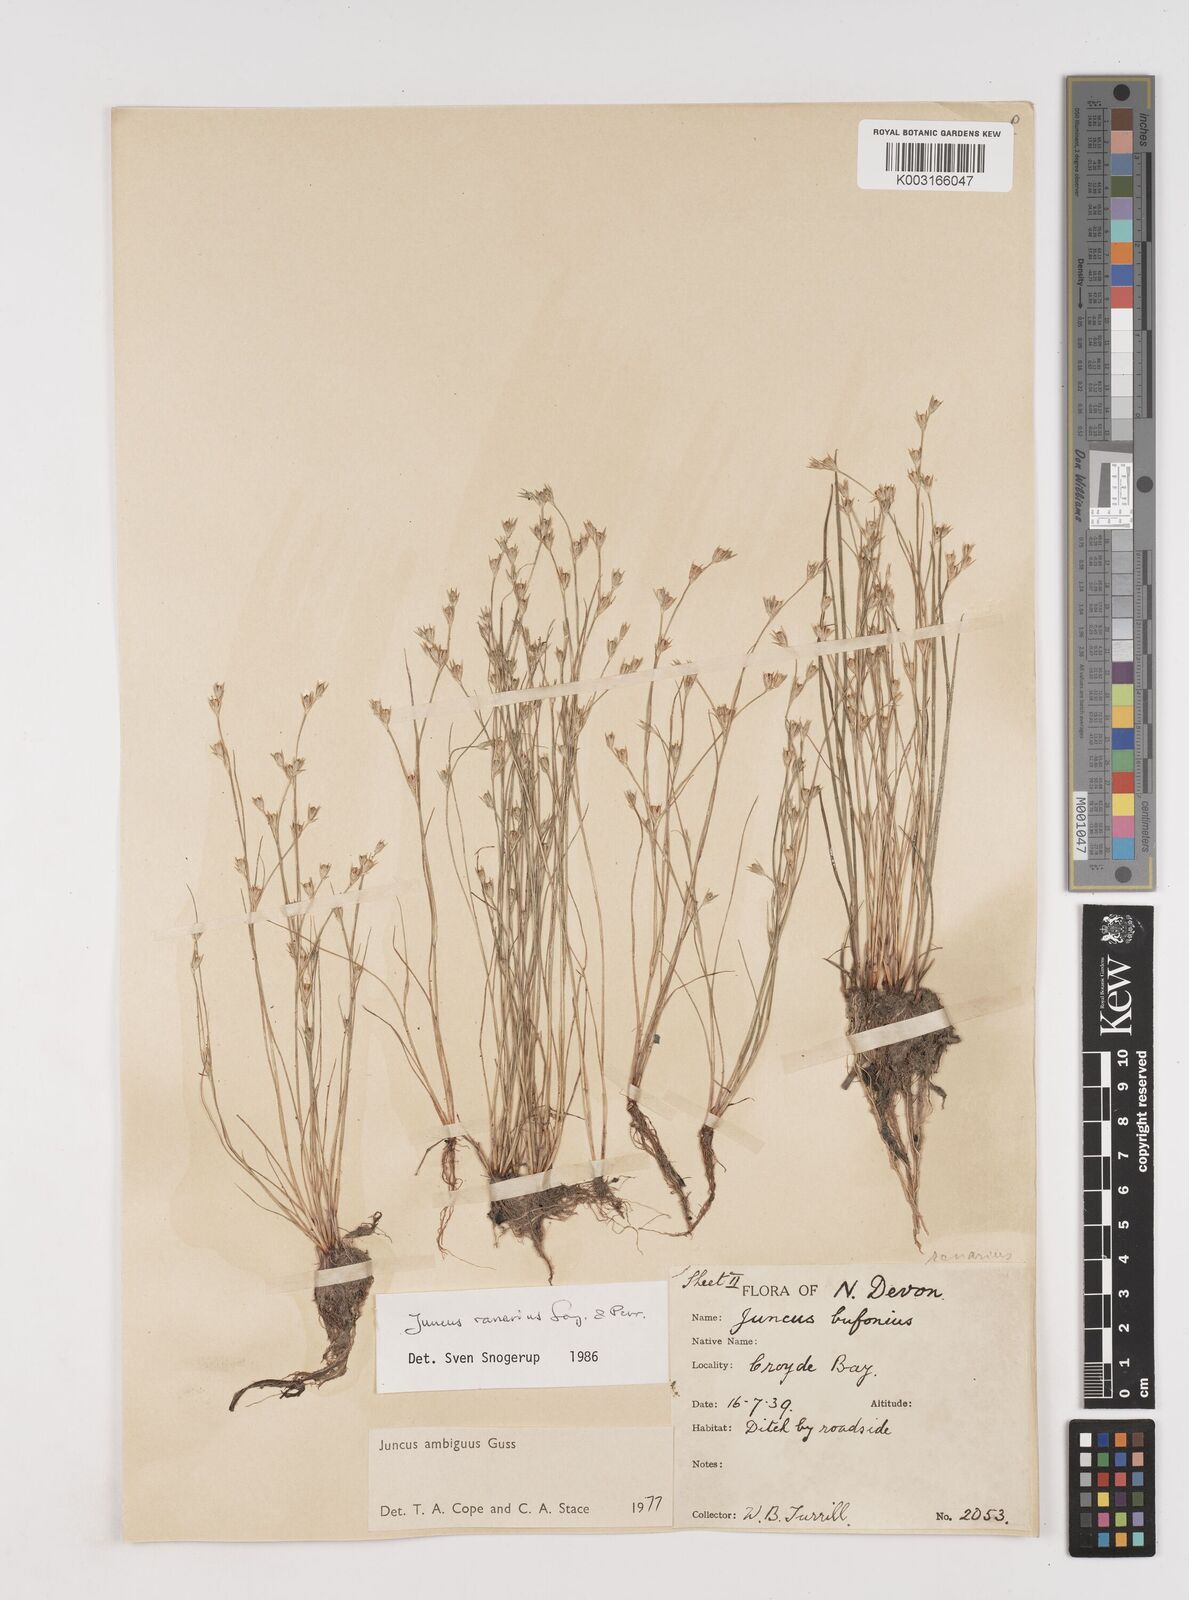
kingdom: Plantae
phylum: Tracheophyta
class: Liliopsida
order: Poales
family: Juncaceae
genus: Juncus
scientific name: Juncus hybridus
